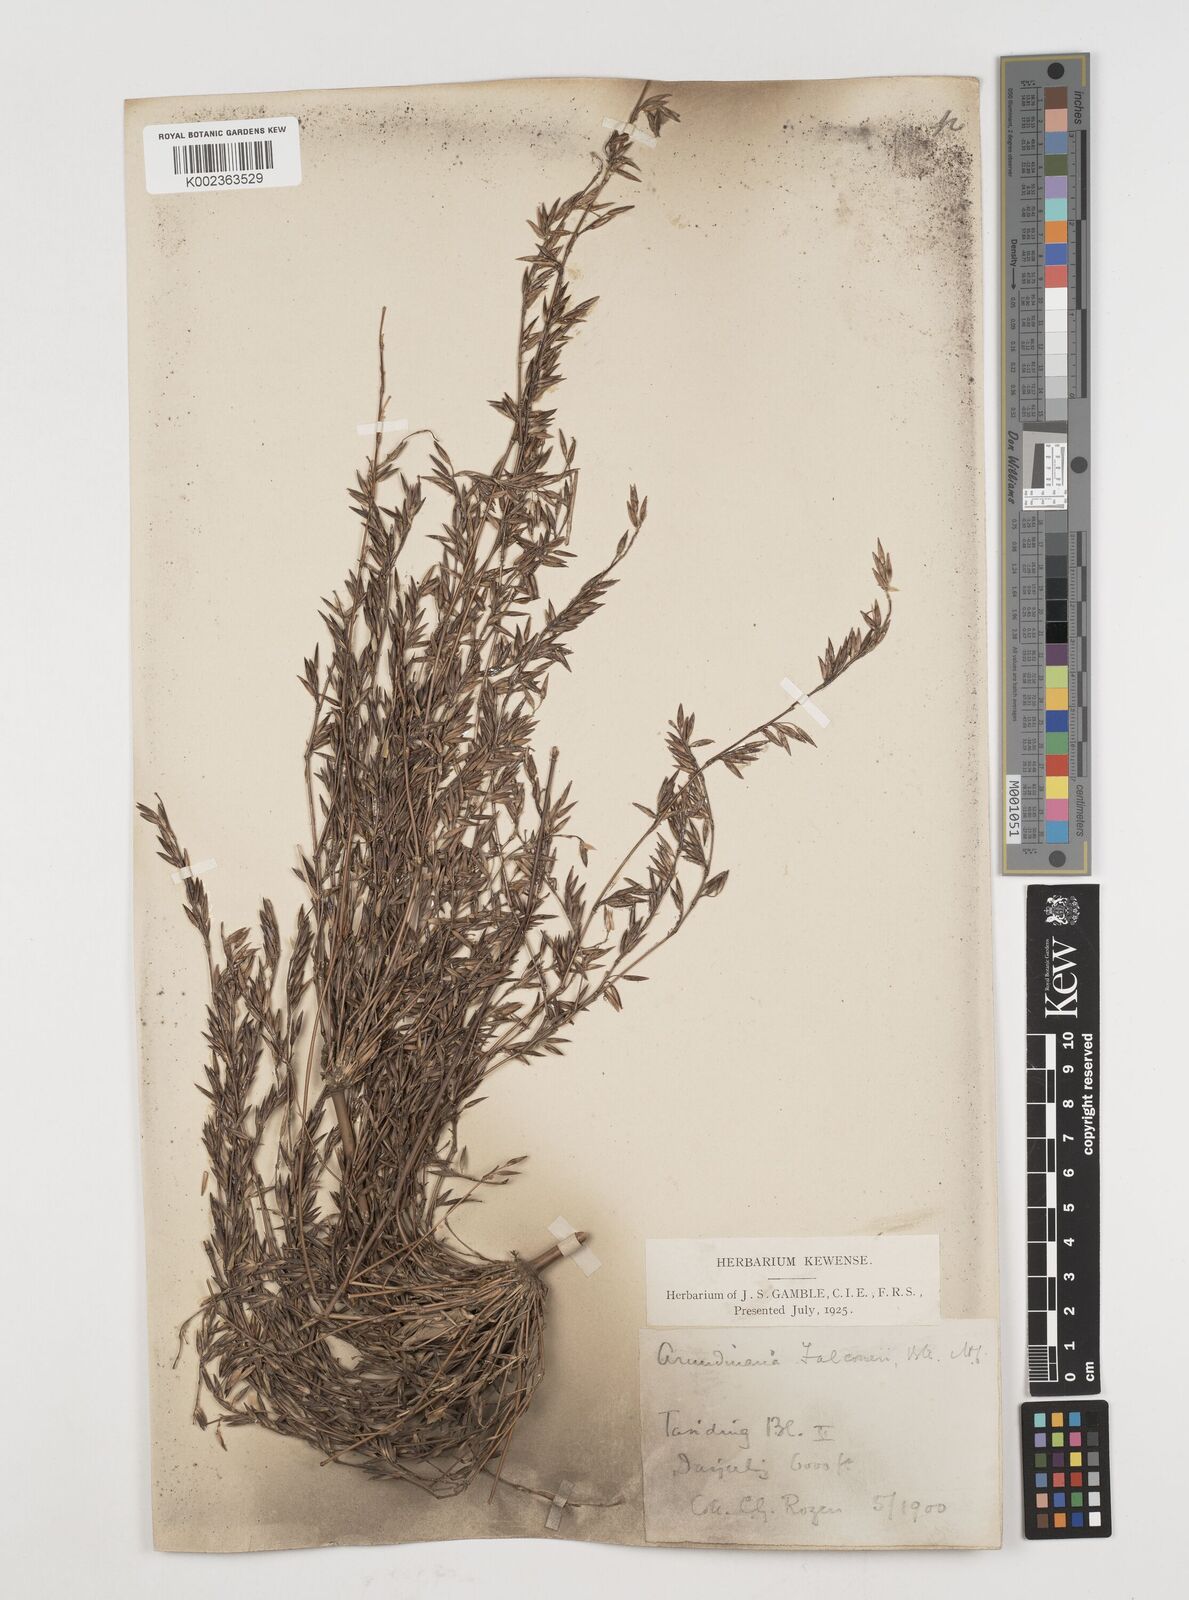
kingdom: Plantae
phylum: Tracheophyta
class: Liliopsida
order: Poales
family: Poaceae
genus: Himalayacalamus
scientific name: Himalayacalamus falconeri
